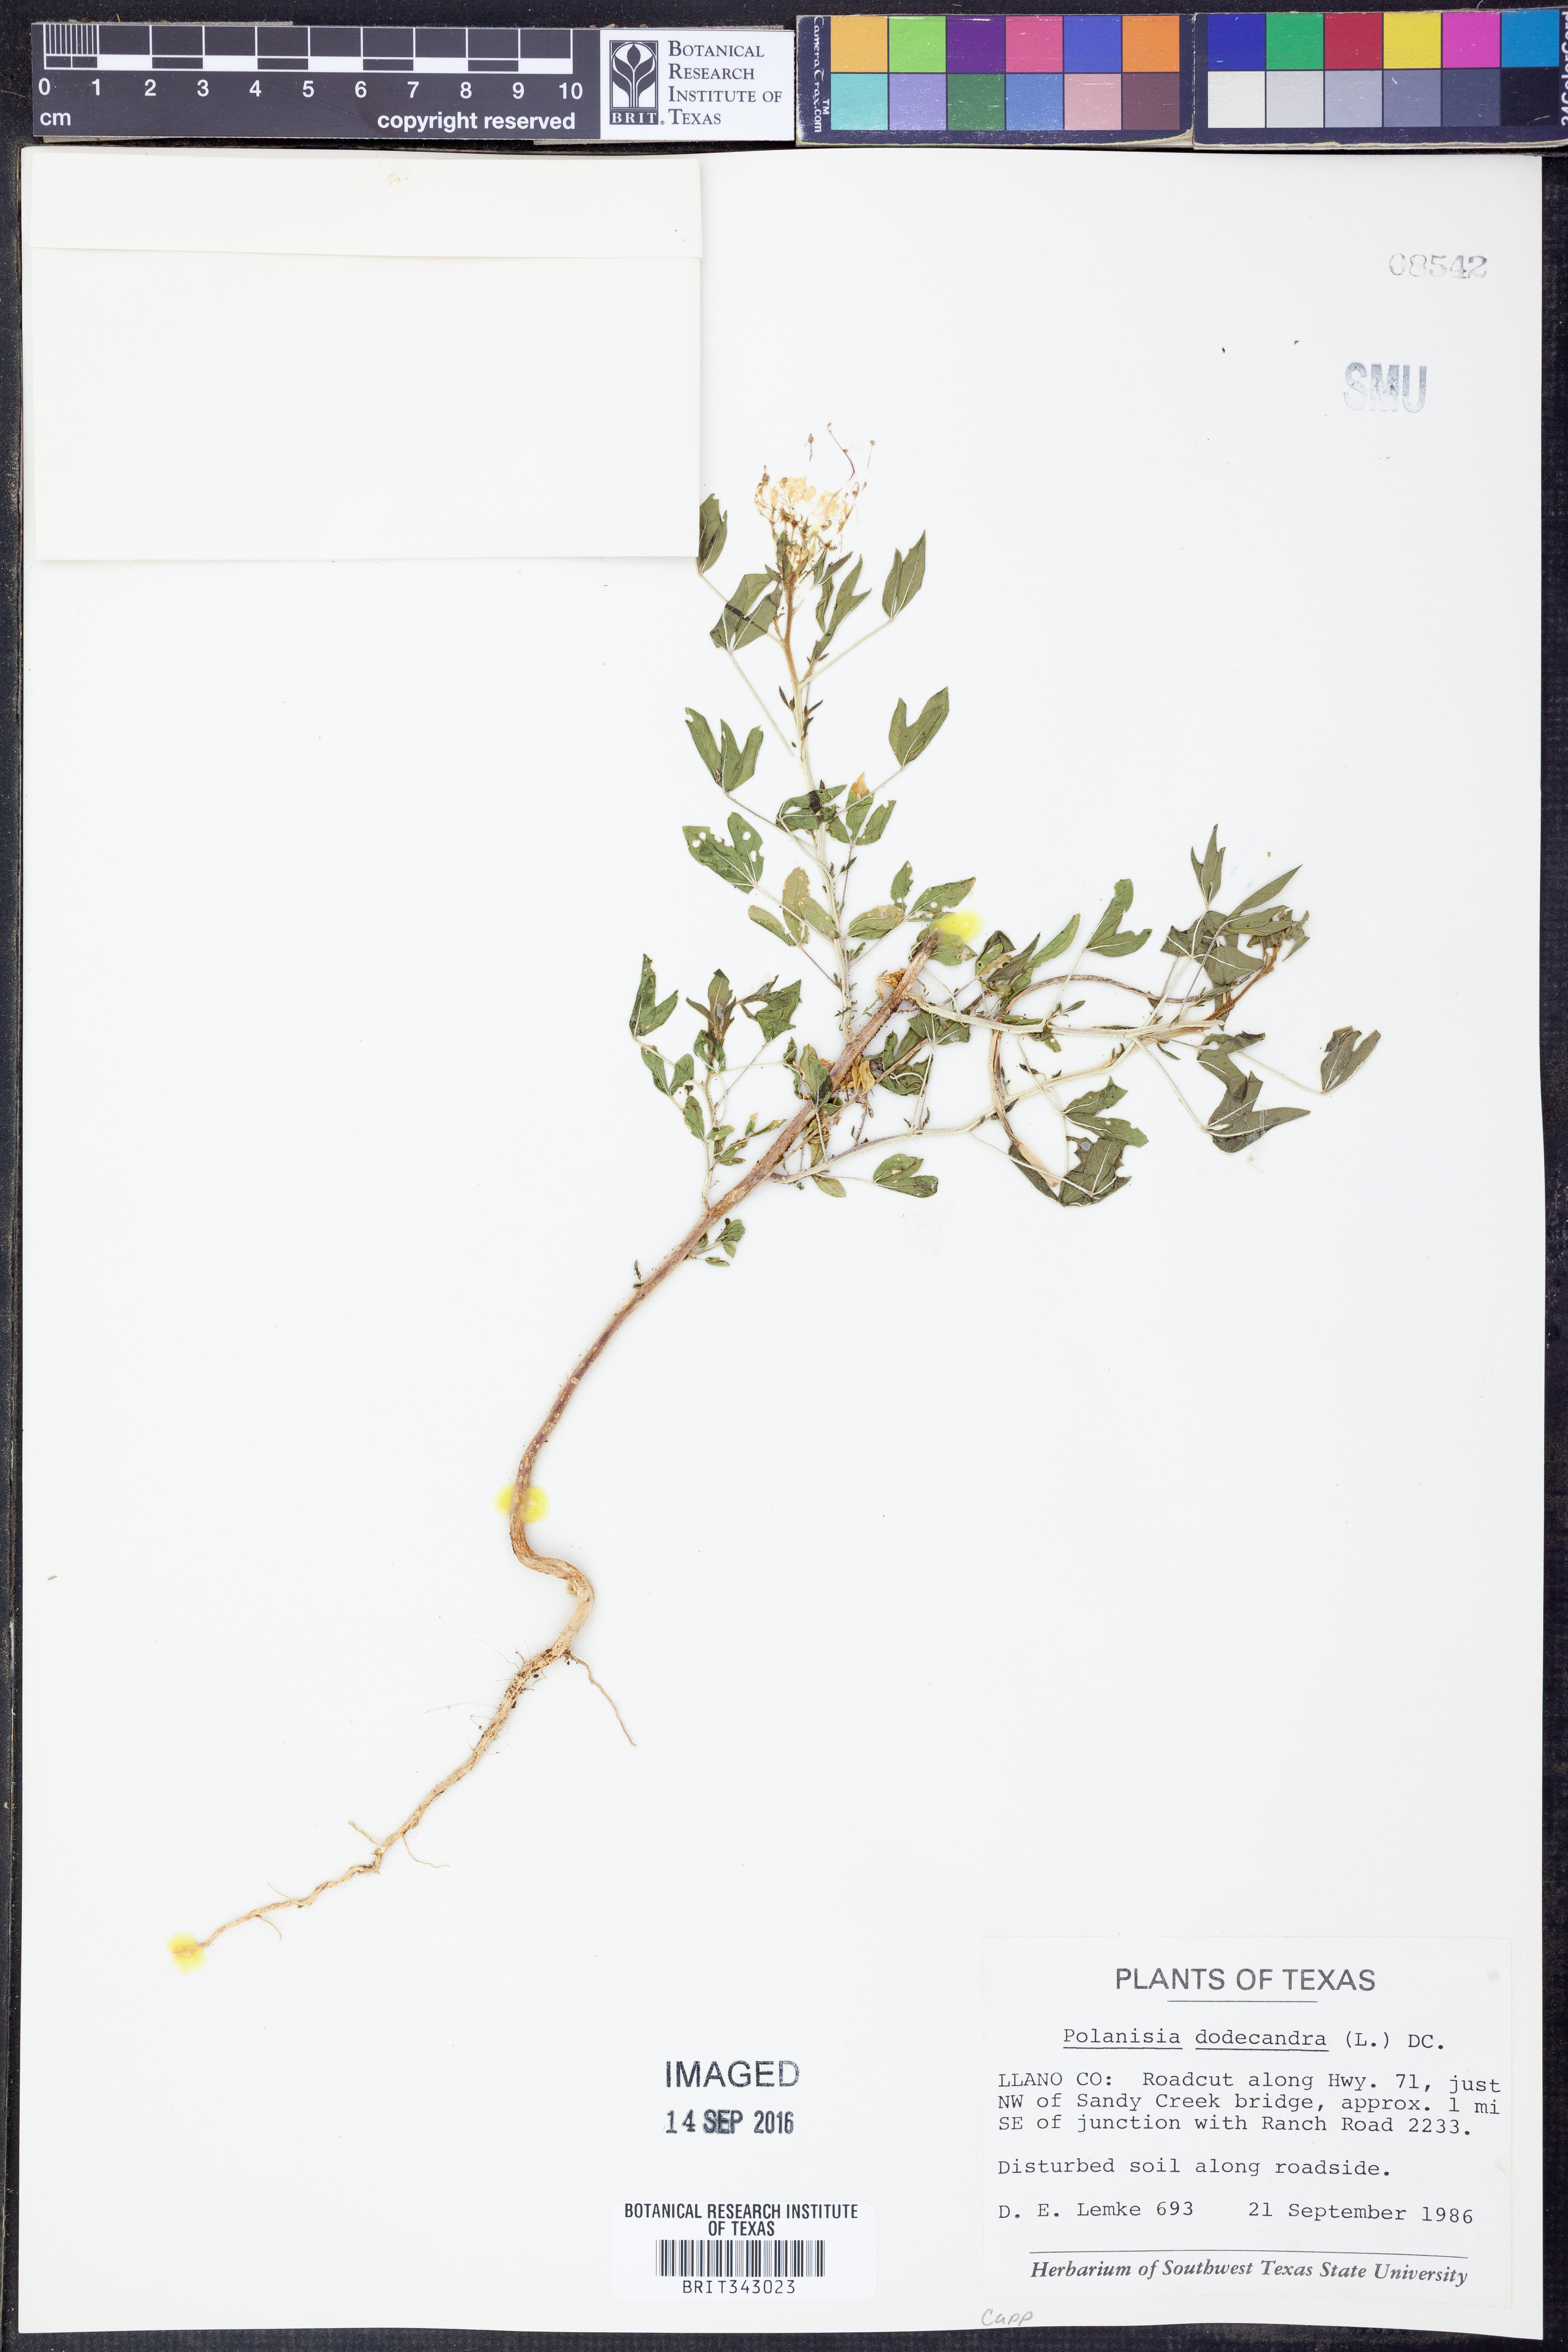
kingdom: Plantae
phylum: Tracheophyta
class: Magnoliopsida
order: Brassicales
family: Cleomaceae
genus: Polanisia
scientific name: Polanisia dodecandra
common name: Clammyweed
